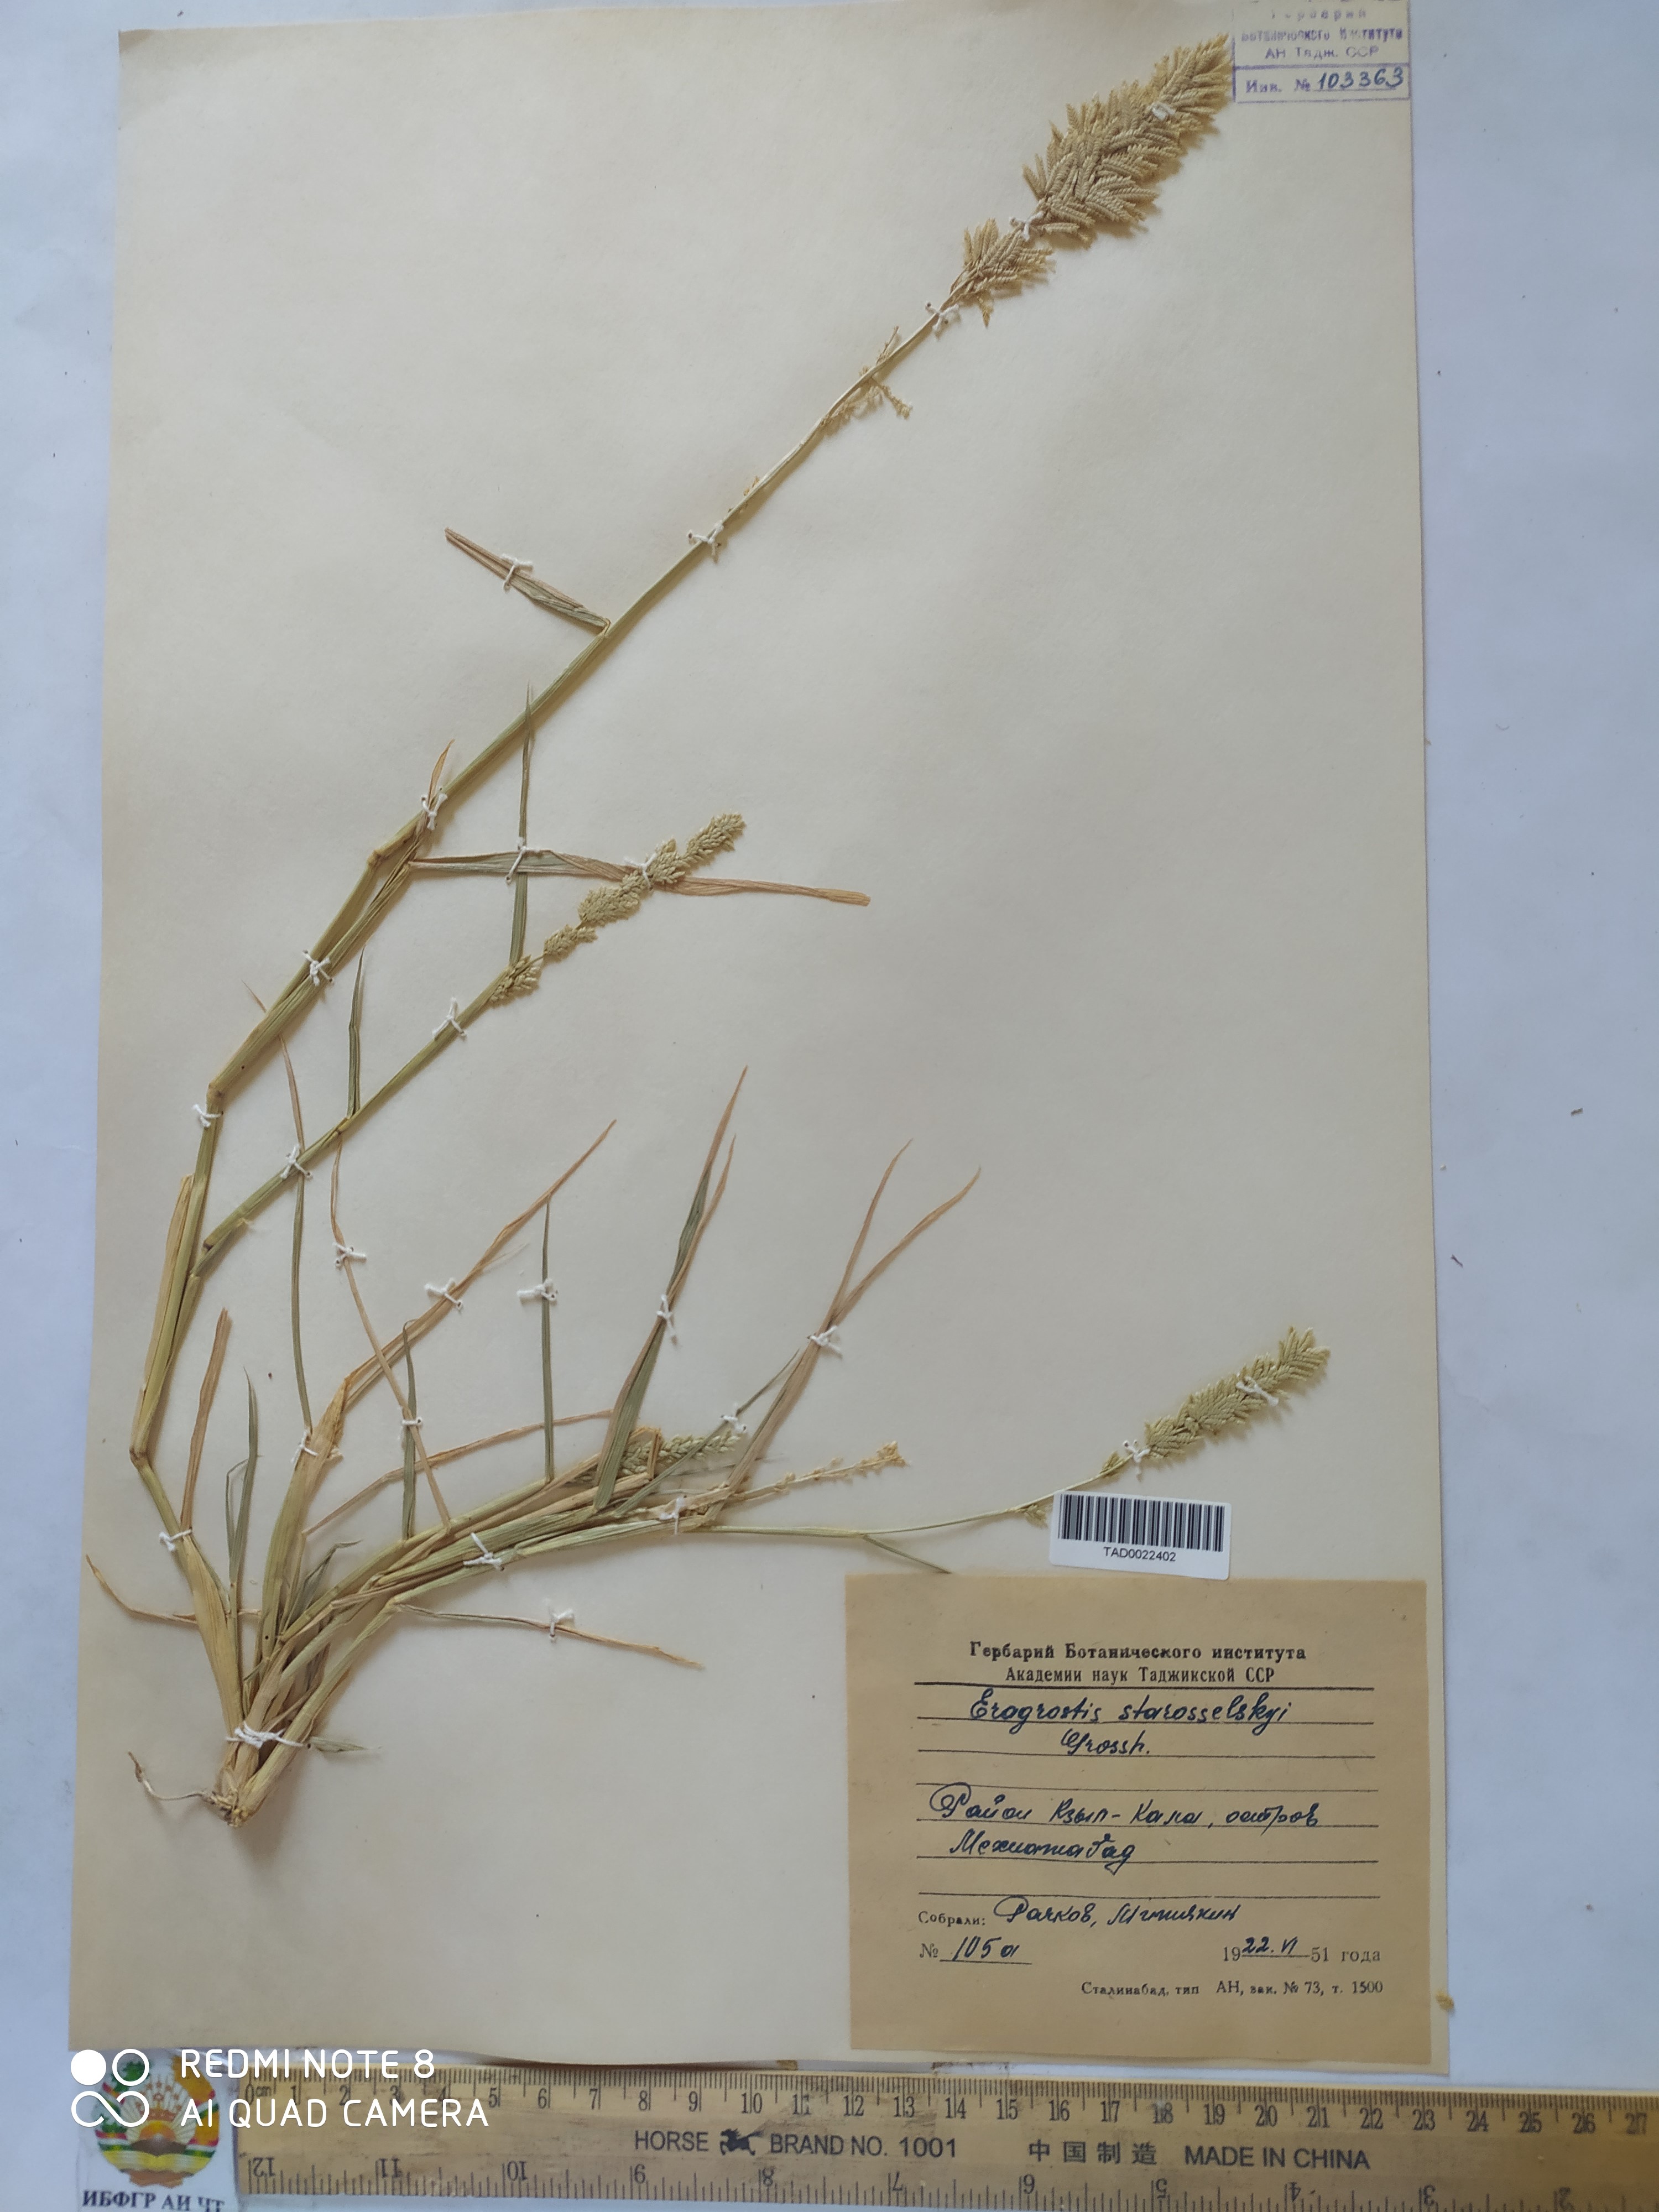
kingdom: Plantae
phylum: Tracheophyta
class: Liliopsida
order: Poales
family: Poaceae
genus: Eragrostis
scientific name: Eragrostis cilianensis
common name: Stinkgrass
